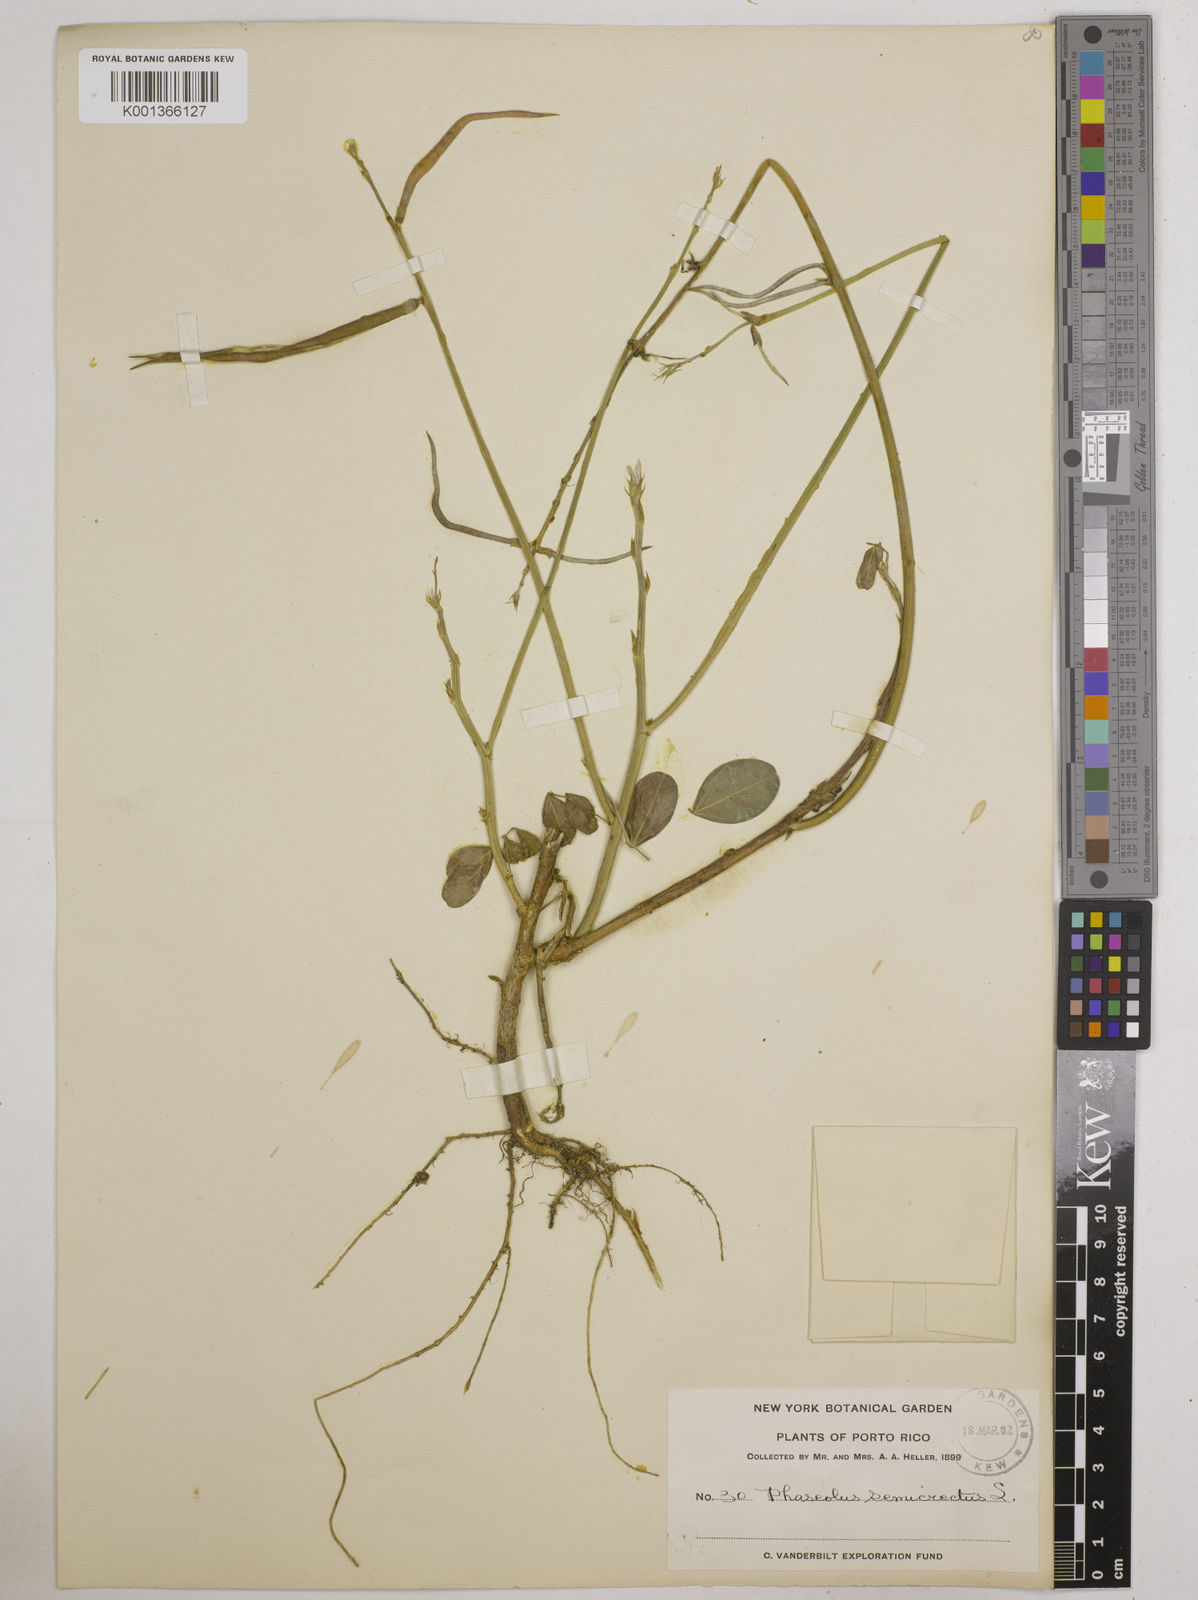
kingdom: Plantae
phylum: Tracheophyta
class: Magnoliopsida
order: Fabales
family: Fabaceae
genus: Macroptilium
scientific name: Macroptilium lathyroides
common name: Wild bushbean
